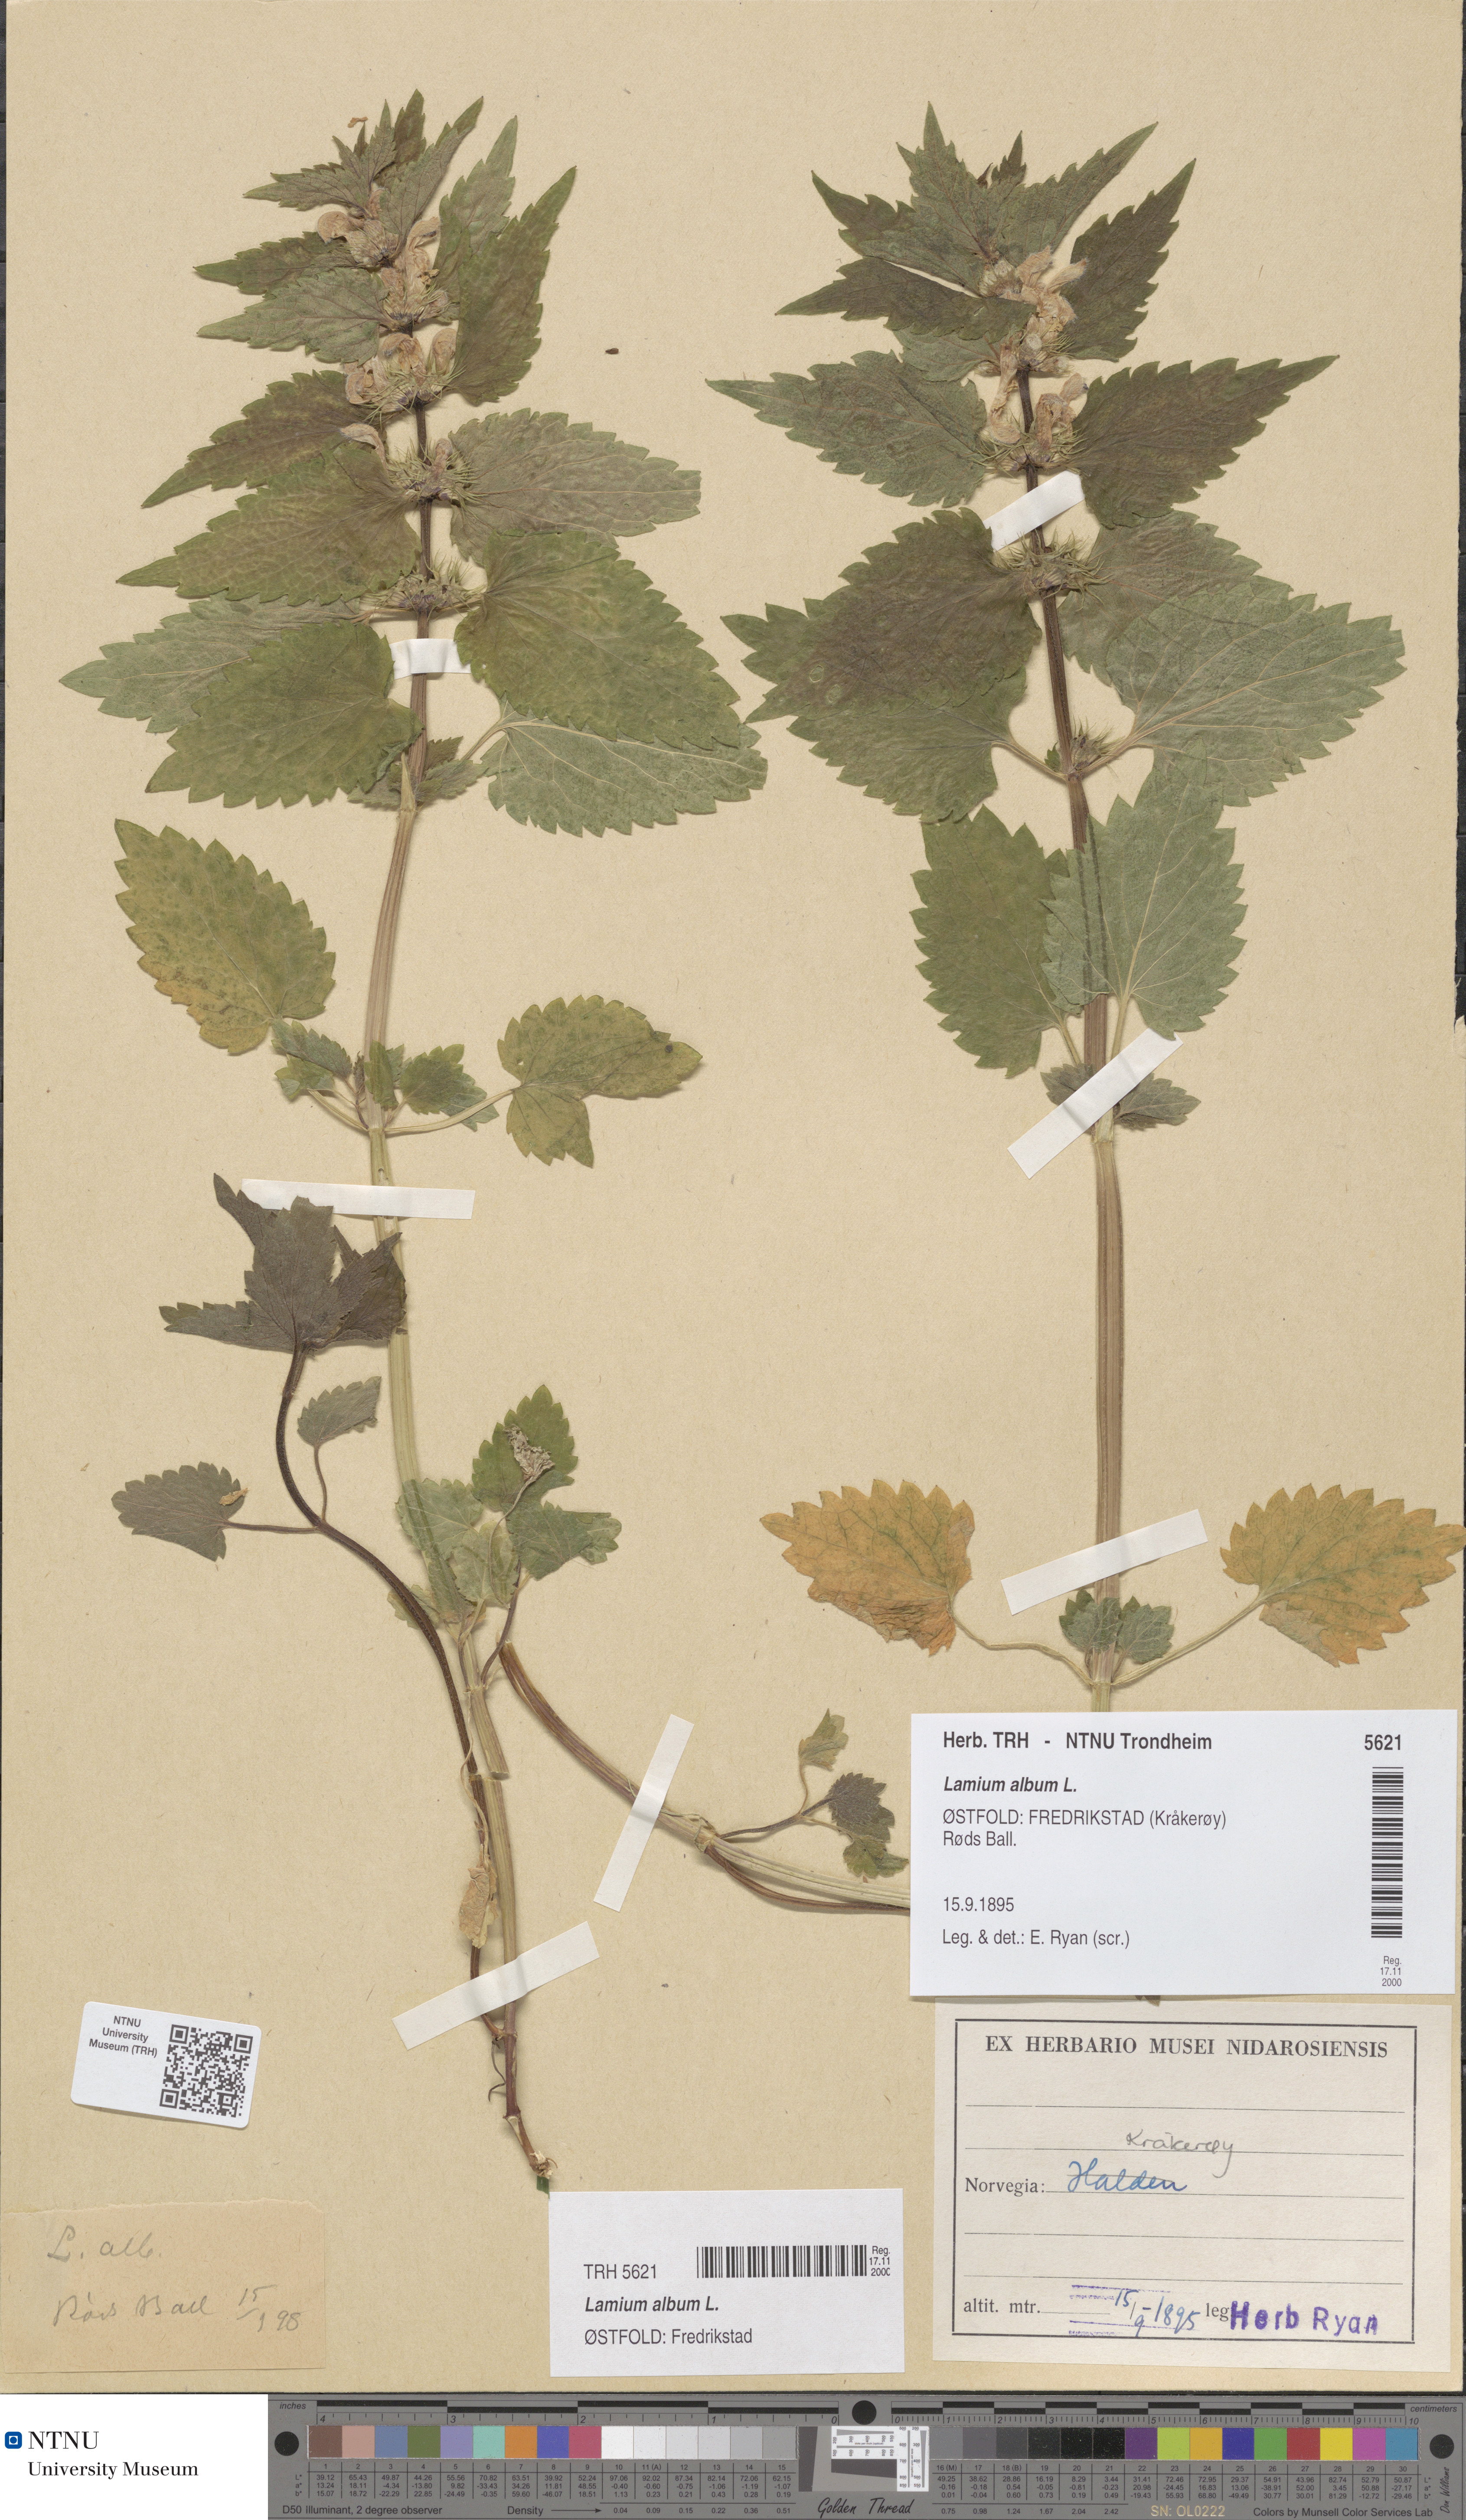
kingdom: Plantae
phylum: Tracheophyta
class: Magnoliopsida
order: Lamiales
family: Lamiaceae
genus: Lamium
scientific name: Lamium album
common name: White dead-nettle
